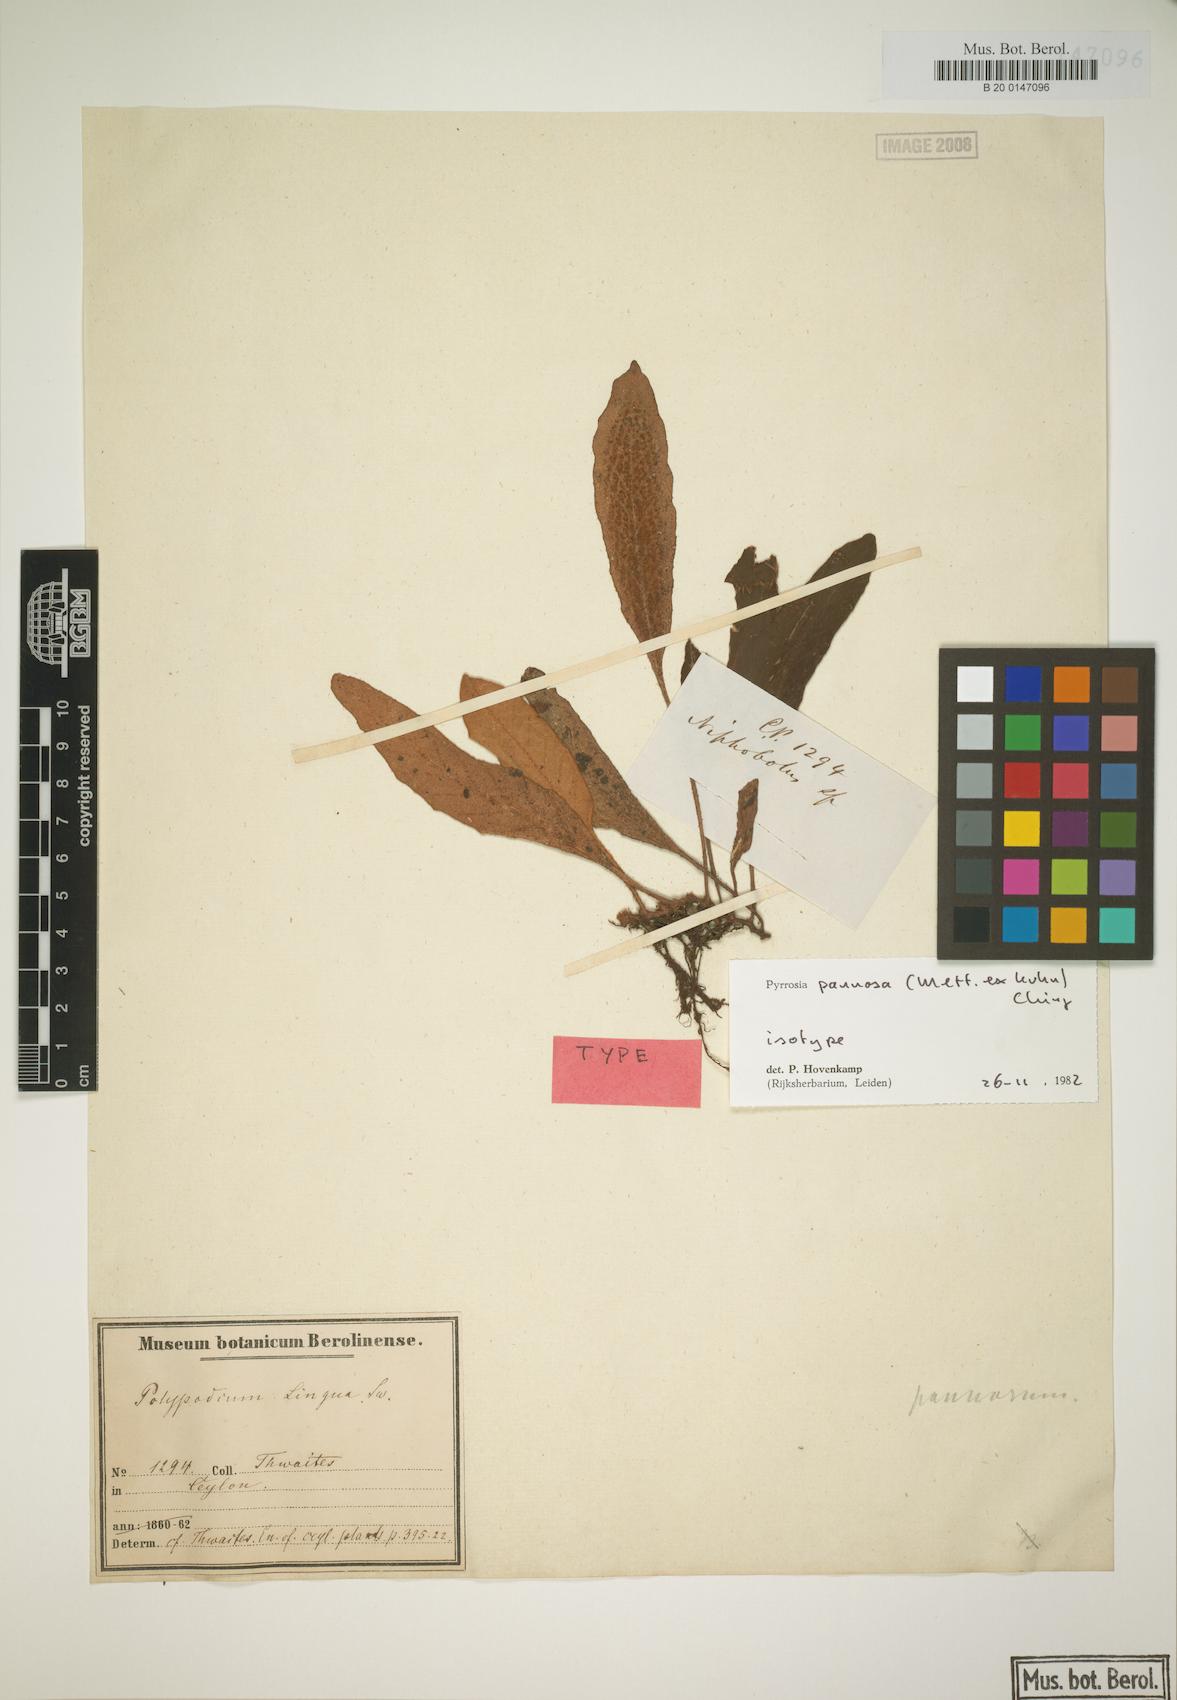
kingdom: Plantae
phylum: Tracheophyta
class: Polypodiopsida
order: Polypodiales
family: Polypodiaceae
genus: Pyrrosia
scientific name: Pyrrosia pannosa
